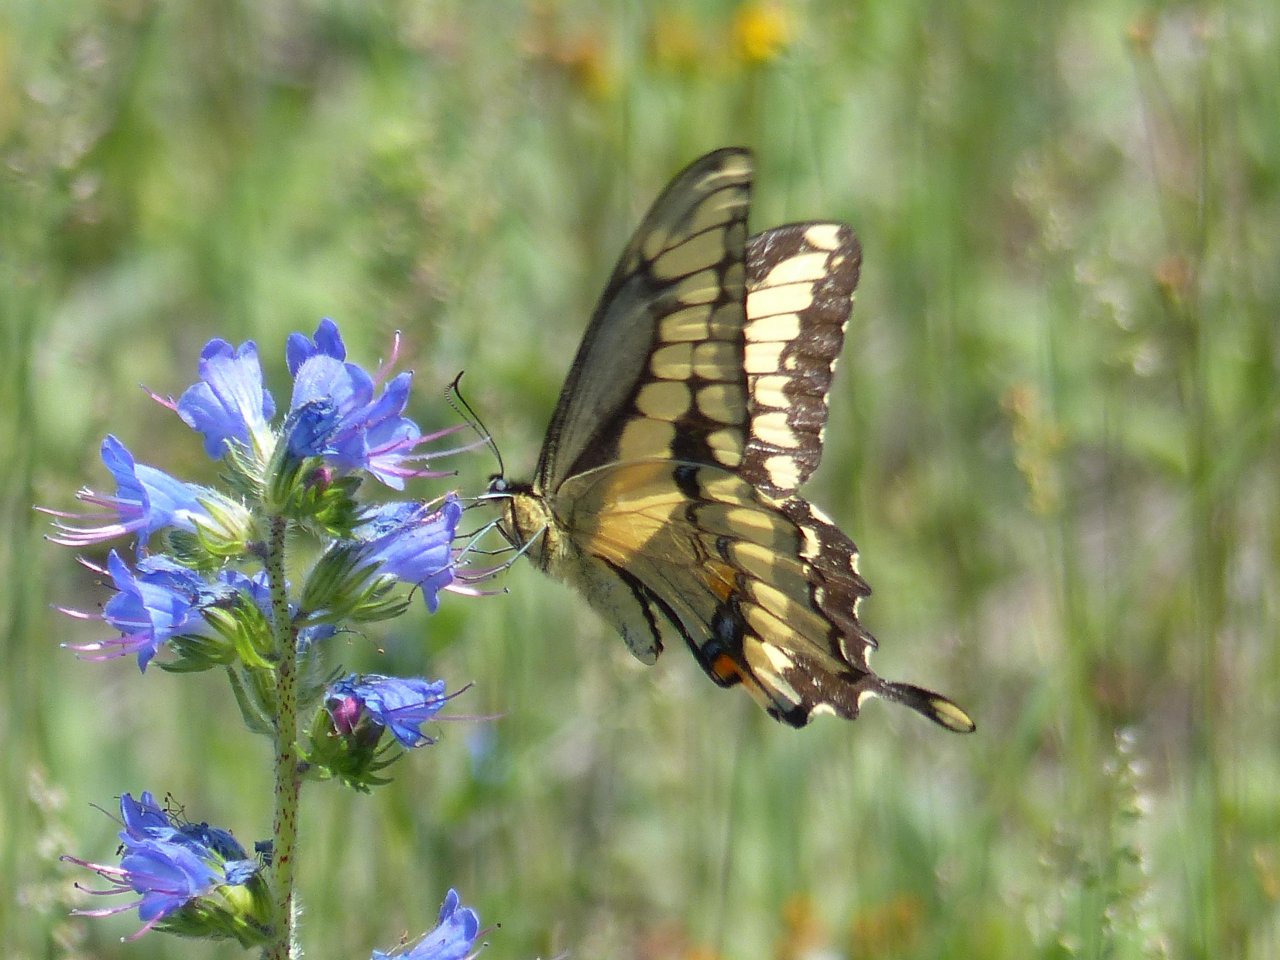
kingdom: Animalia
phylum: Arthropoda
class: Insecta
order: Lepidoptera
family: Papilionidae
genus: Papilio
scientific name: Papilio cresphontes
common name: Eastern Giant Swallowtail
